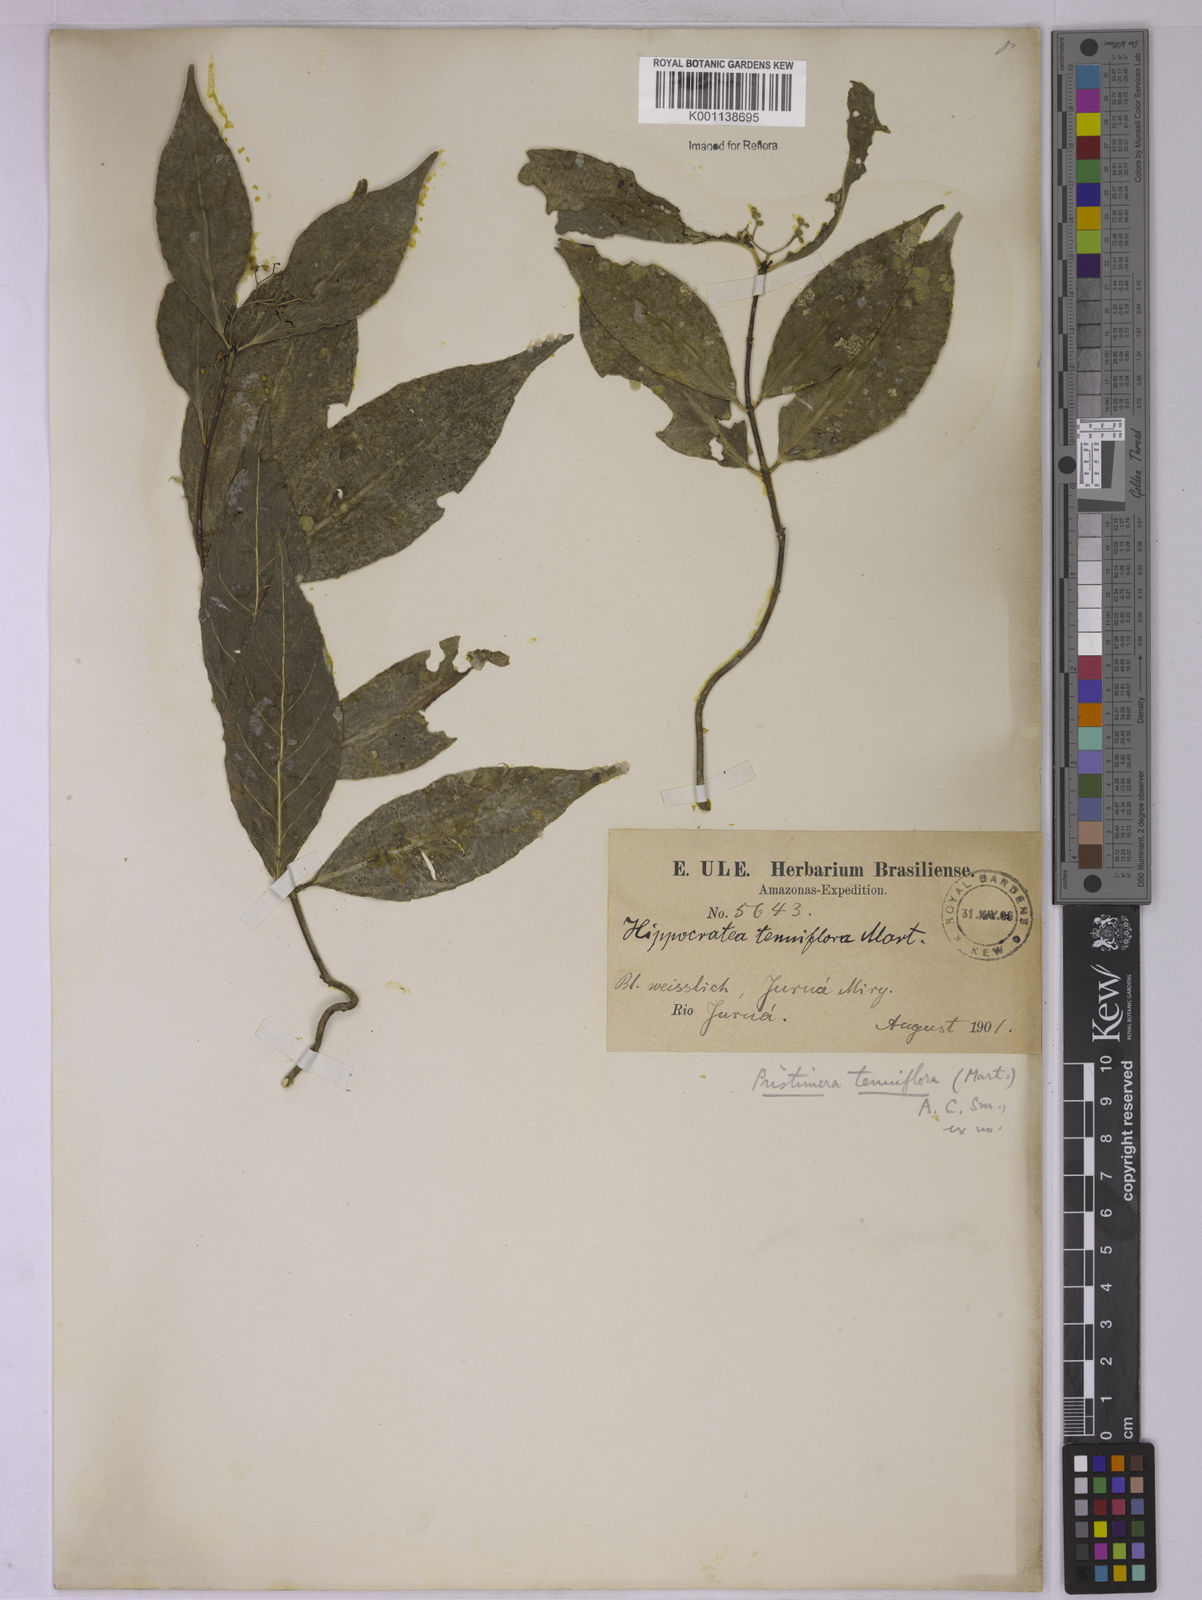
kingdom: Plantae
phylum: Tracheophyta
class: Magnoliopsida
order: Celastrales
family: Celastraceae
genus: Pristimera
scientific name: Pristimera tenuiflora
